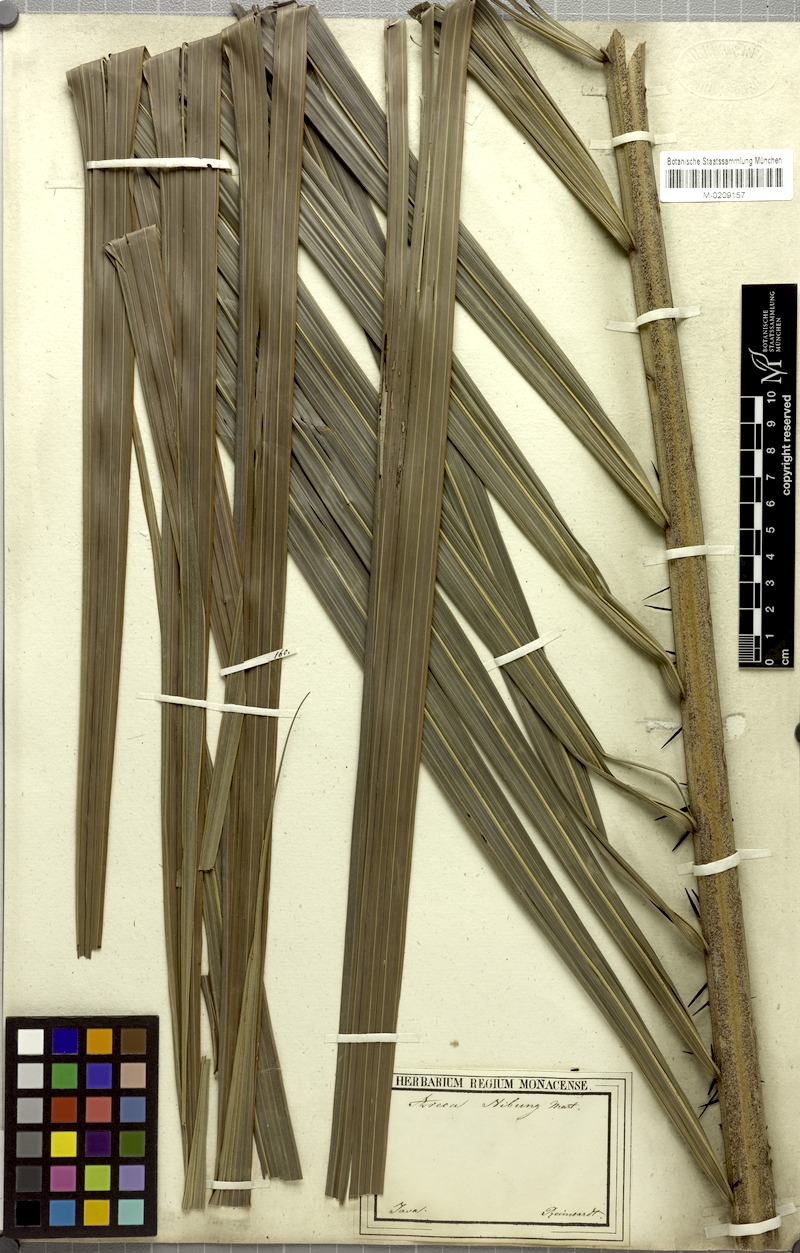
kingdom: Plantae
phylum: Tracheophyta
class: Liliopsida
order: Arecales
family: Arecaceae
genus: Oncosperma
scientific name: Oncosperma horridum
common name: Thorny palm
